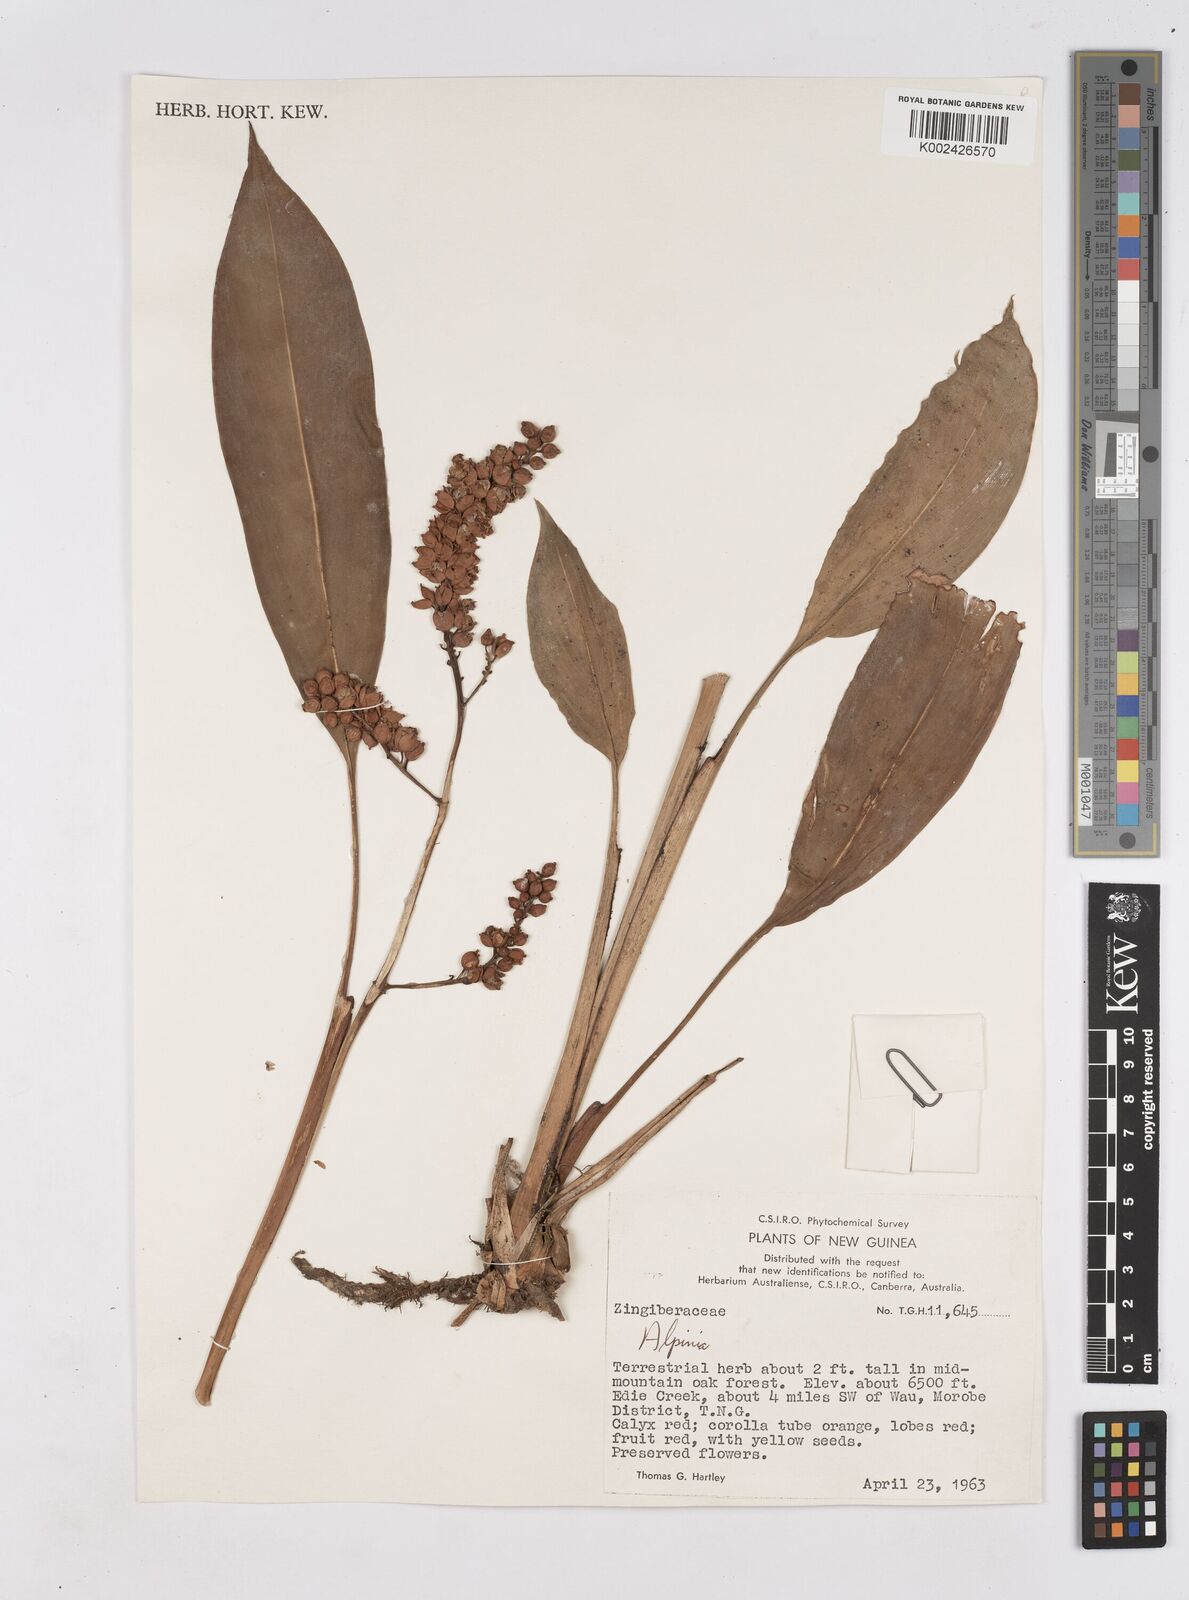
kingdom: Plantae
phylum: Tracheophyta
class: Liliopsida
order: Zingiberales
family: Zingiberaceae
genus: Riedelia
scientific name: Riedelia
